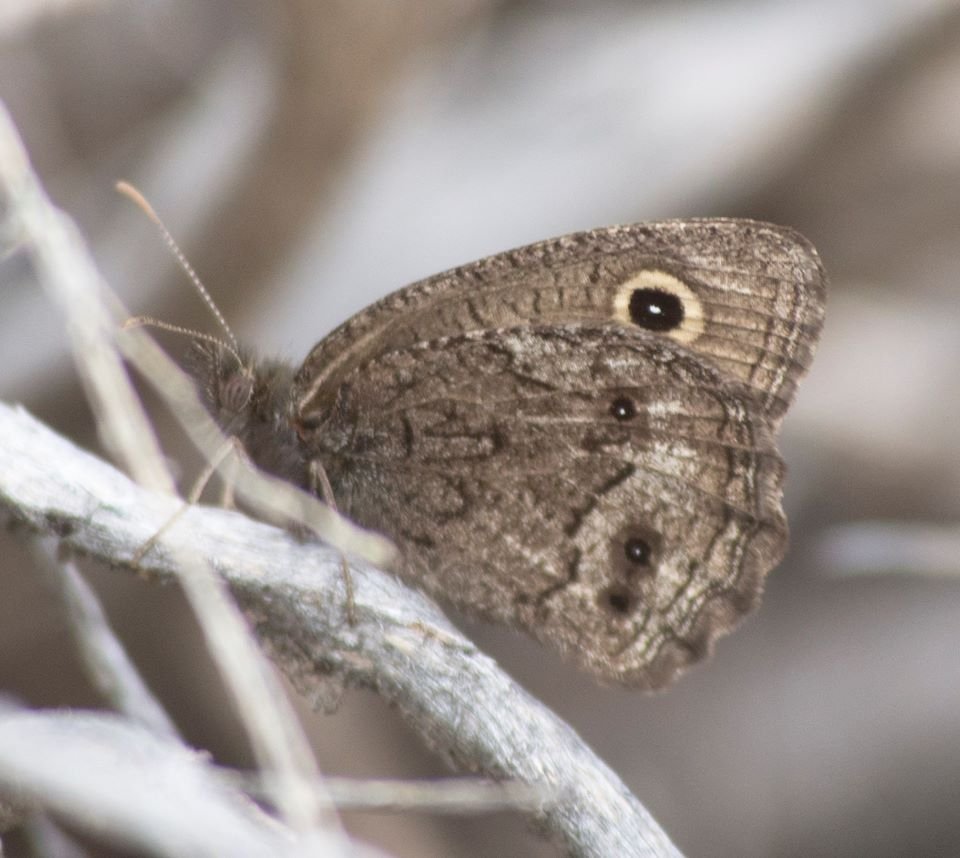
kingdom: Animalia
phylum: Arthropoda
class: Insecta
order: Lepidoptera
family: Nymphalidae
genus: Cercyonis
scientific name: Cercyonis oetus
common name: Small Wood-Nymph
